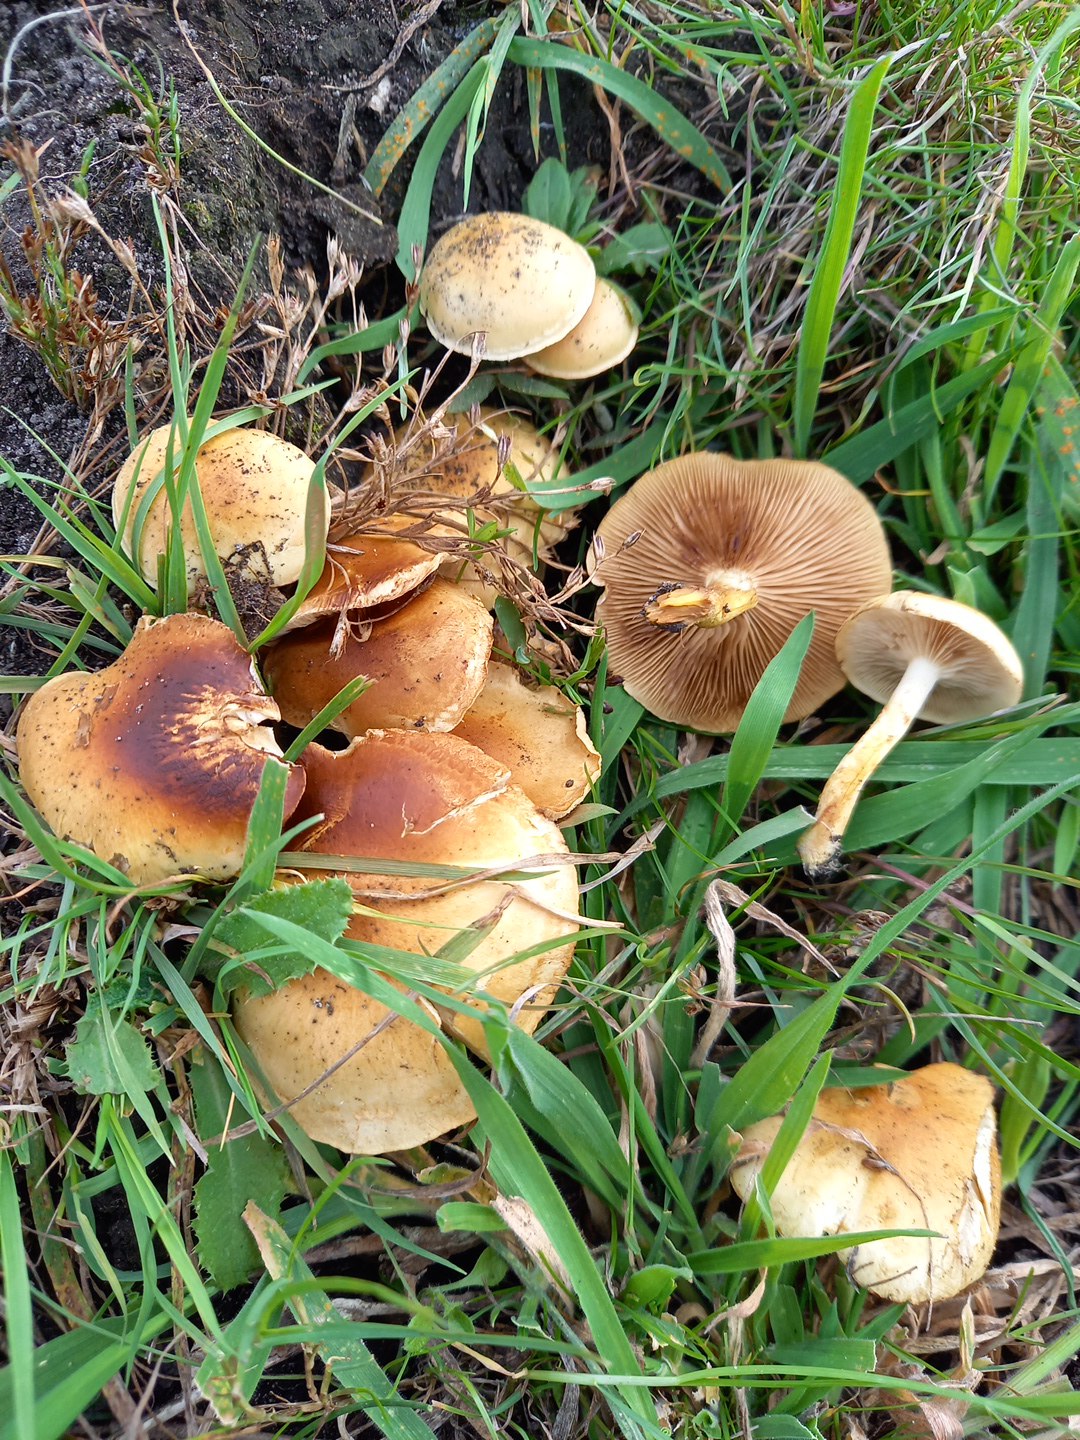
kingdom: Fungi
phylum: Basidiomycota
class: Agaricomycetes
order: Agaricales
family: Strophariaceae
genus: Pholiota
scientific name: Pholiota conissans
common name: pile-skælhat
